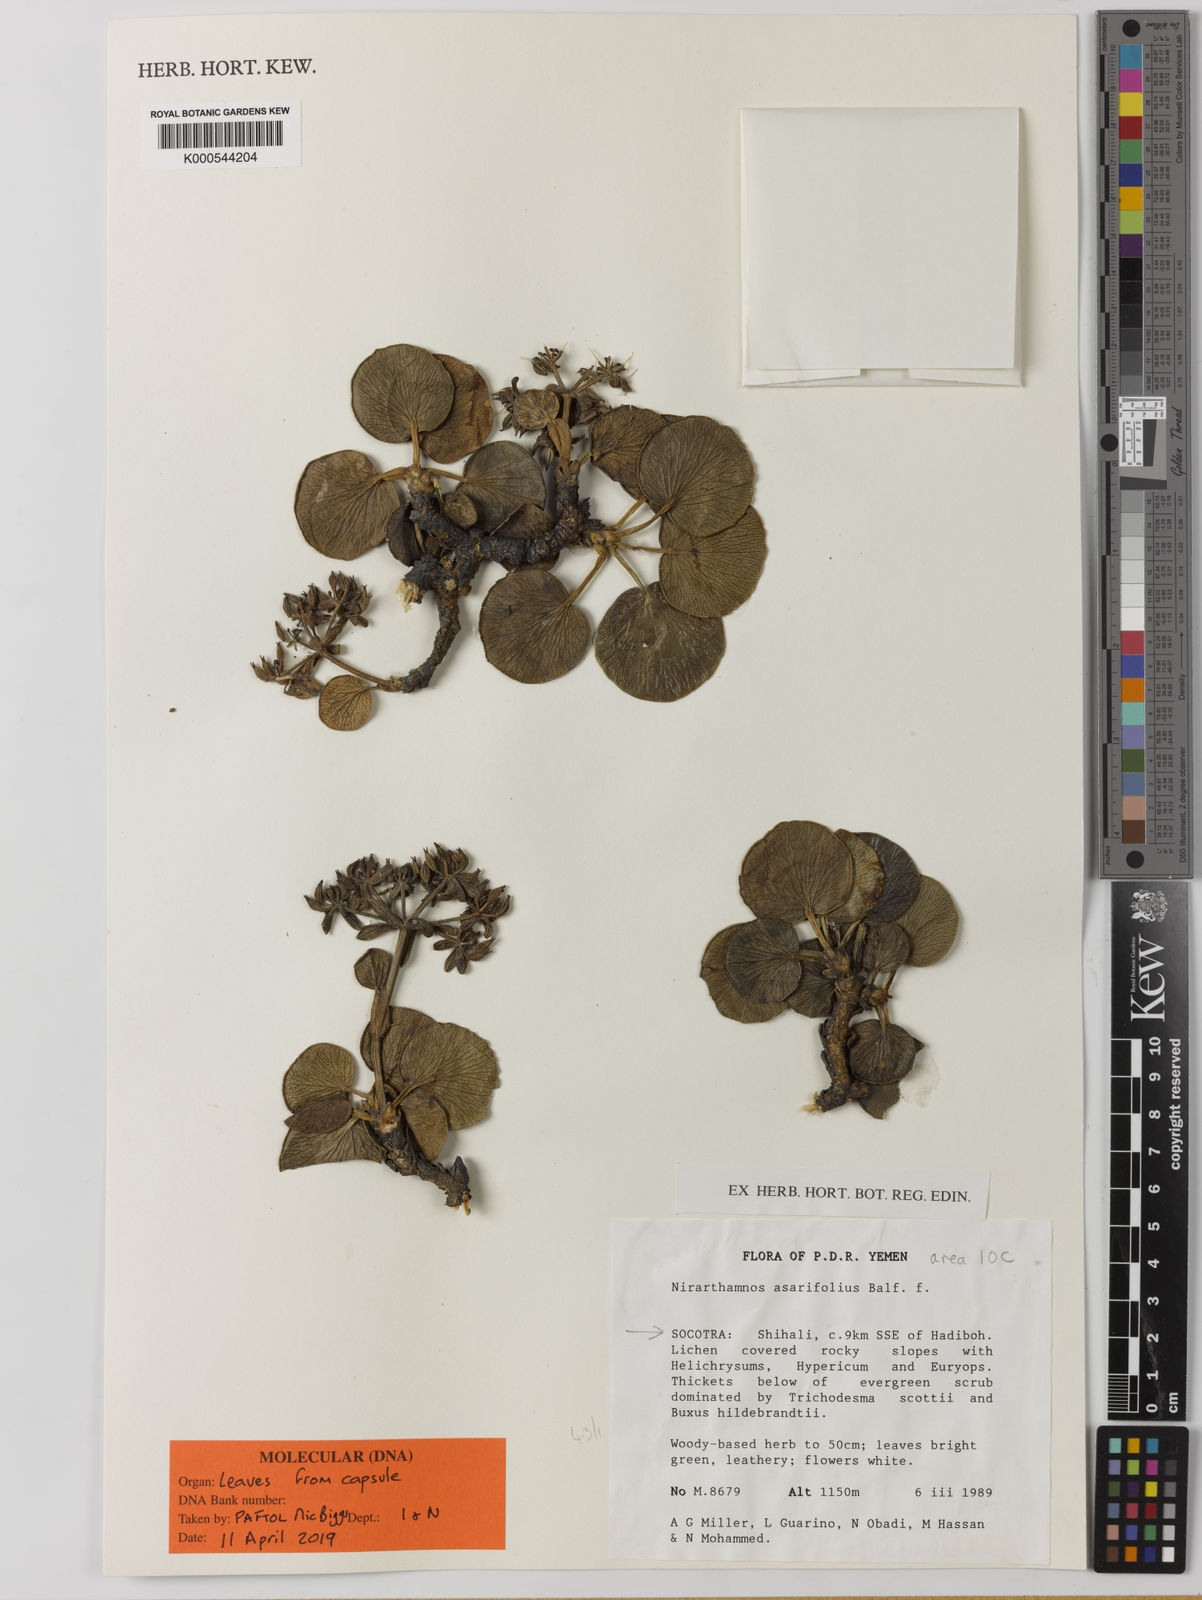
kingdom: Plantae
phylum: Tracheophyta
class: Magnoliopsida
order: Apiales
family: Apiaceae
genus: Nirarathamnos
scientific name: Nirarathamnos asarifolius
